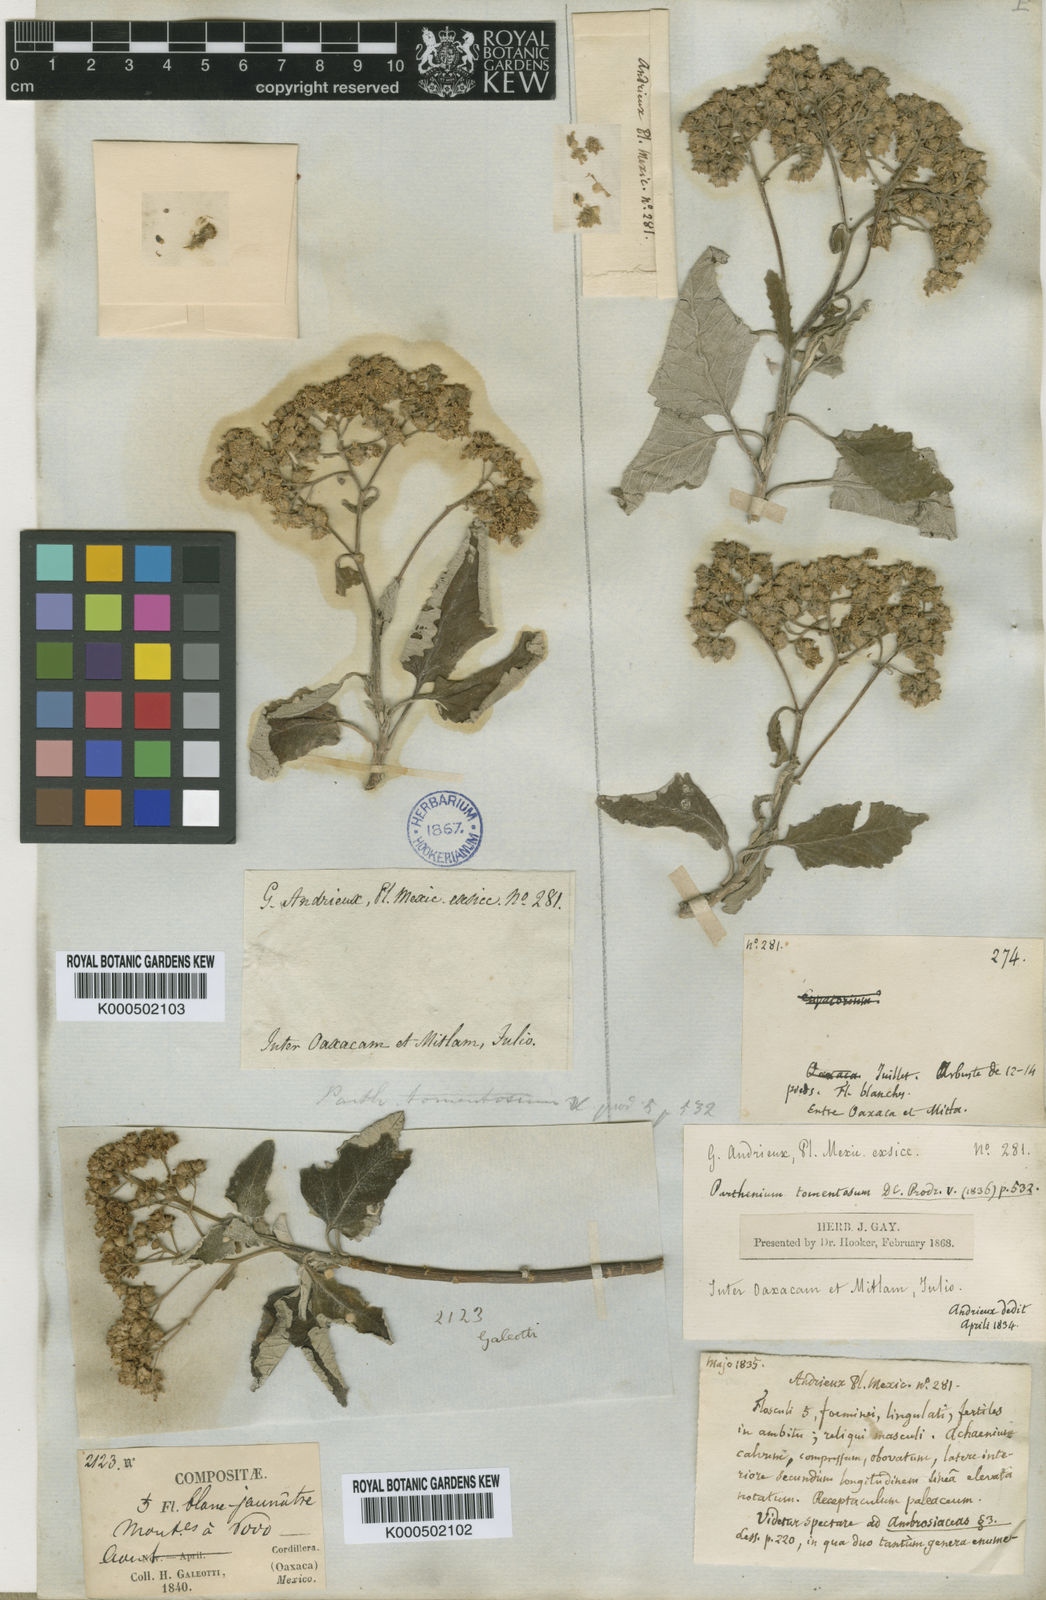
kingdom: Plantae
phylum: Tracheophyta
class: Magnoliopsida
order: Asterales
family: Asteraceae
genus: Parthenium
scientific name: Parthenium tomentosum
